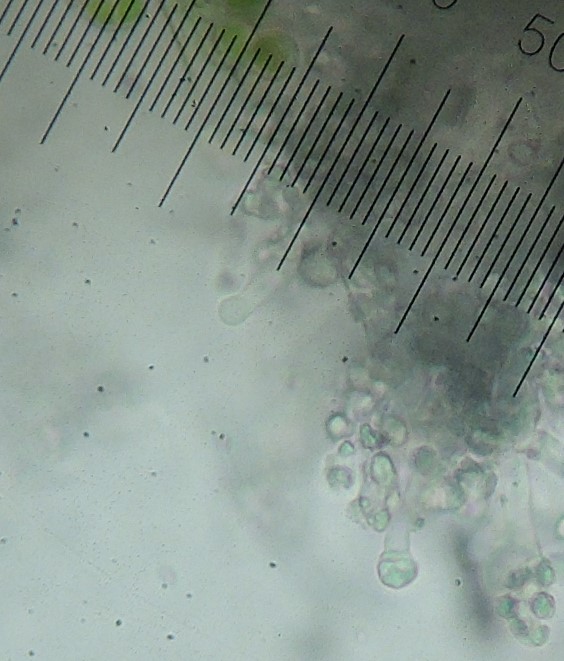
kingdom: Fungi
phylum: Basidiomycota
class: Agaricomycetes
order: Hymenochaetales
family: Schizoporaceae
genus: Xylodon
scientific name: Xylodon brevisetus
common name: tætvortet tandsvamp
